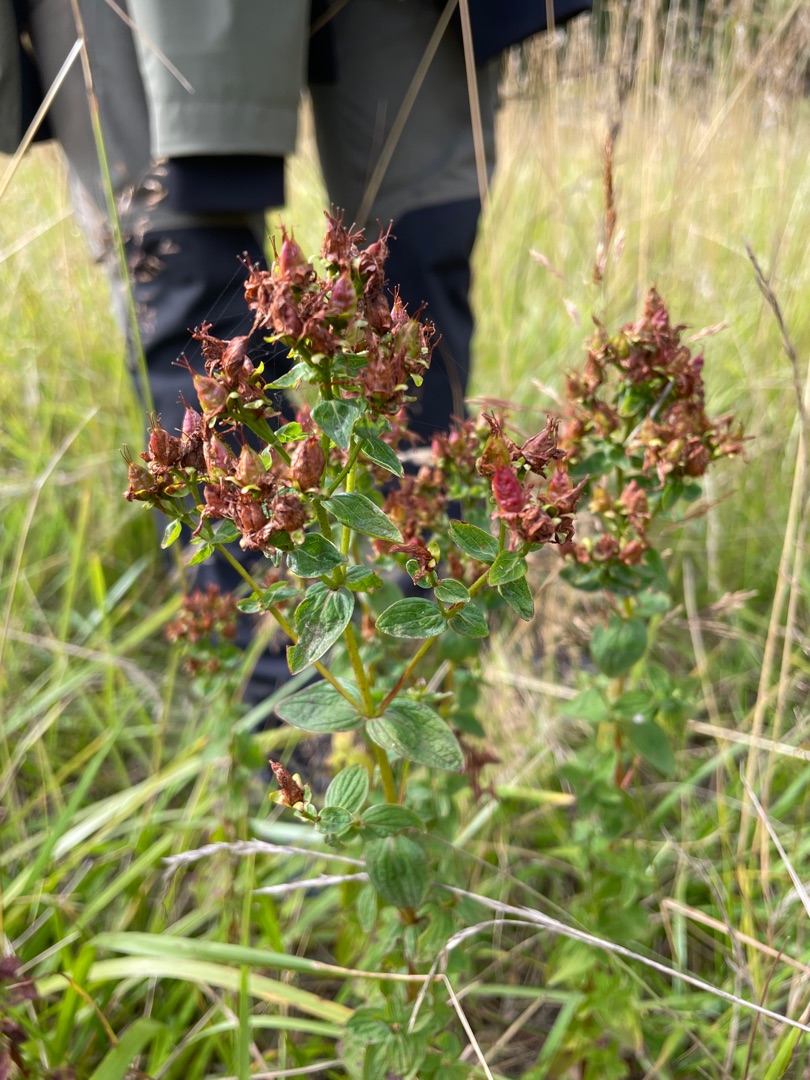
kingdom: Plantae
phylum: Tracheophyta
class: Magnoliopsida
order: Malpighiales
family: Hypericaceae
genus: Hypericum
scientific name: Hypericum maculatum
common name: Kantet perikon
